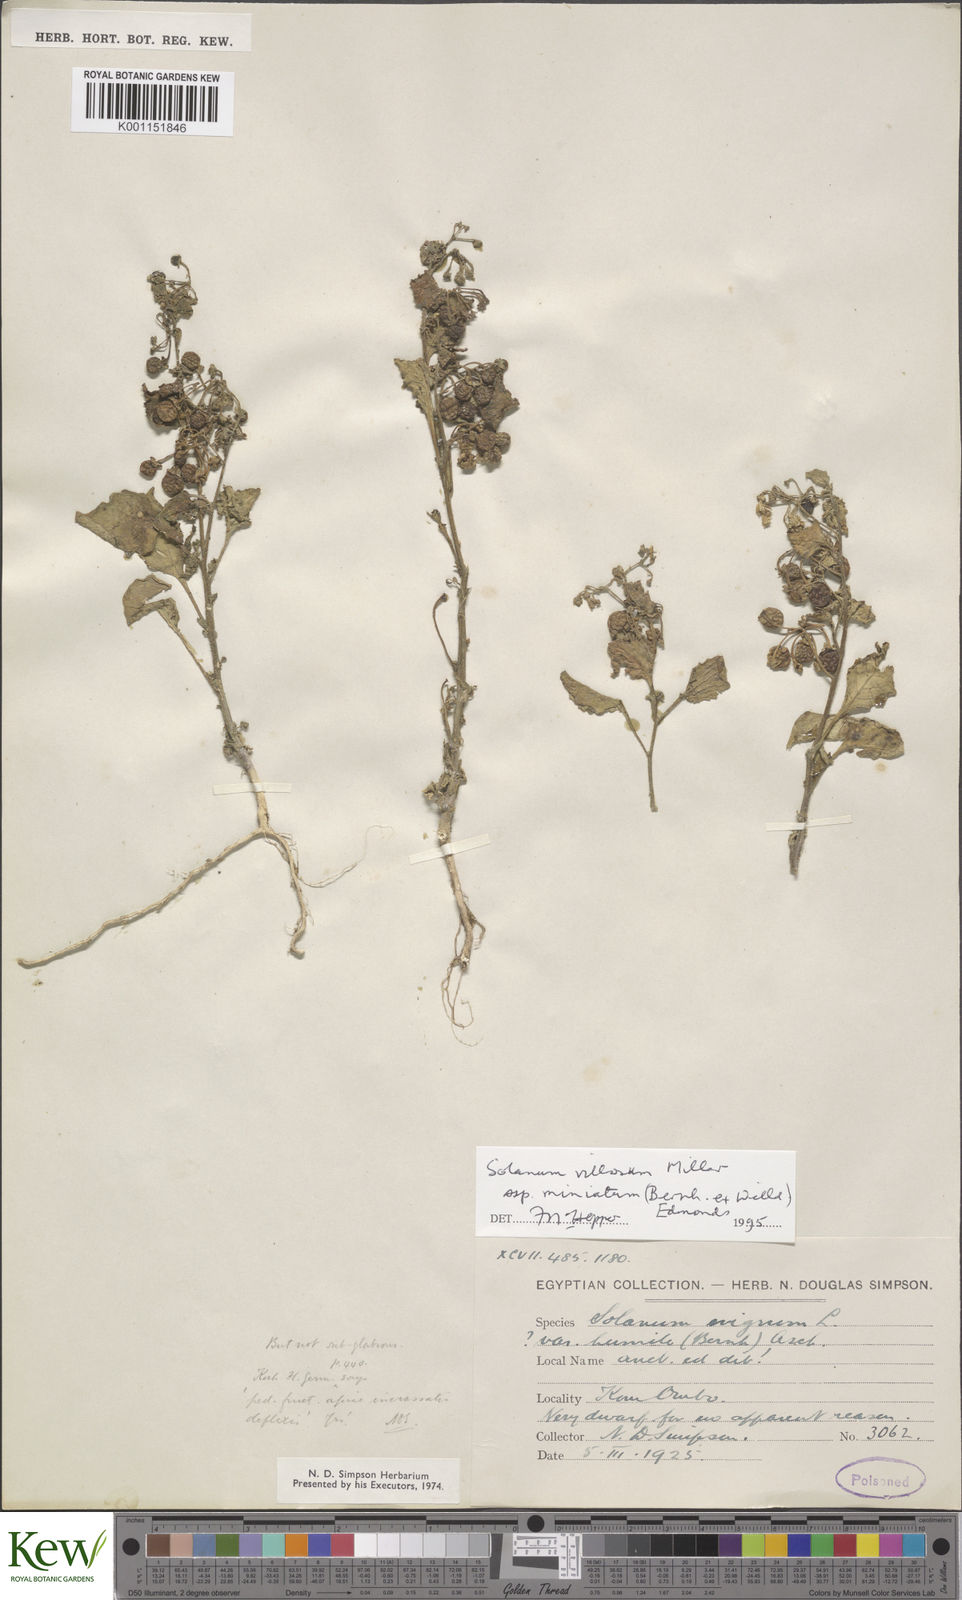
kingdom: Plantae
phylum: Tracheophyta
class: Magnoliopsida
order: Solanales
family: Solanaceae
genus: Solanum
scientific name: Solanum alatum
